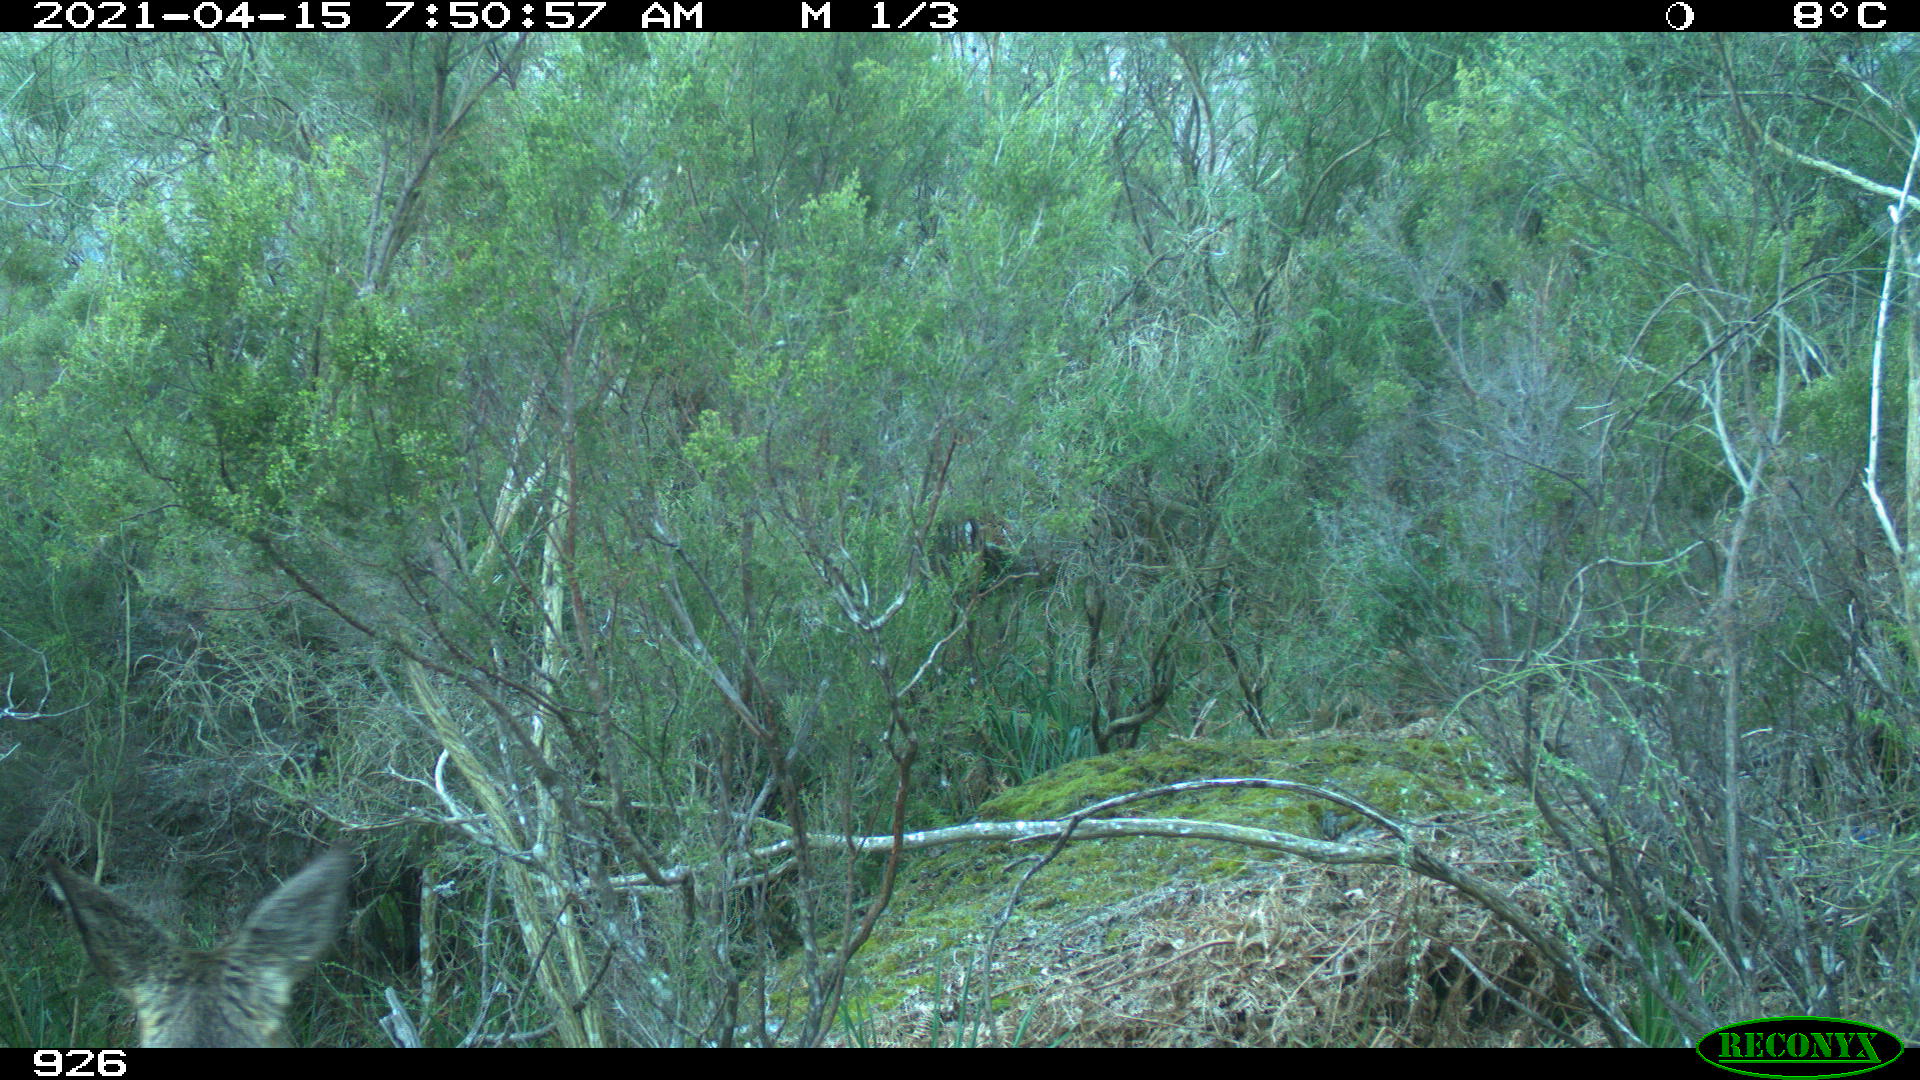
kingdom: Animalia
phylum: Chordata
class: Mammalia
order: Artiodactyla
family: Cervidae
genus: Capreolus
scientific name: Capreolus capreolus
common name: Western roe deer
